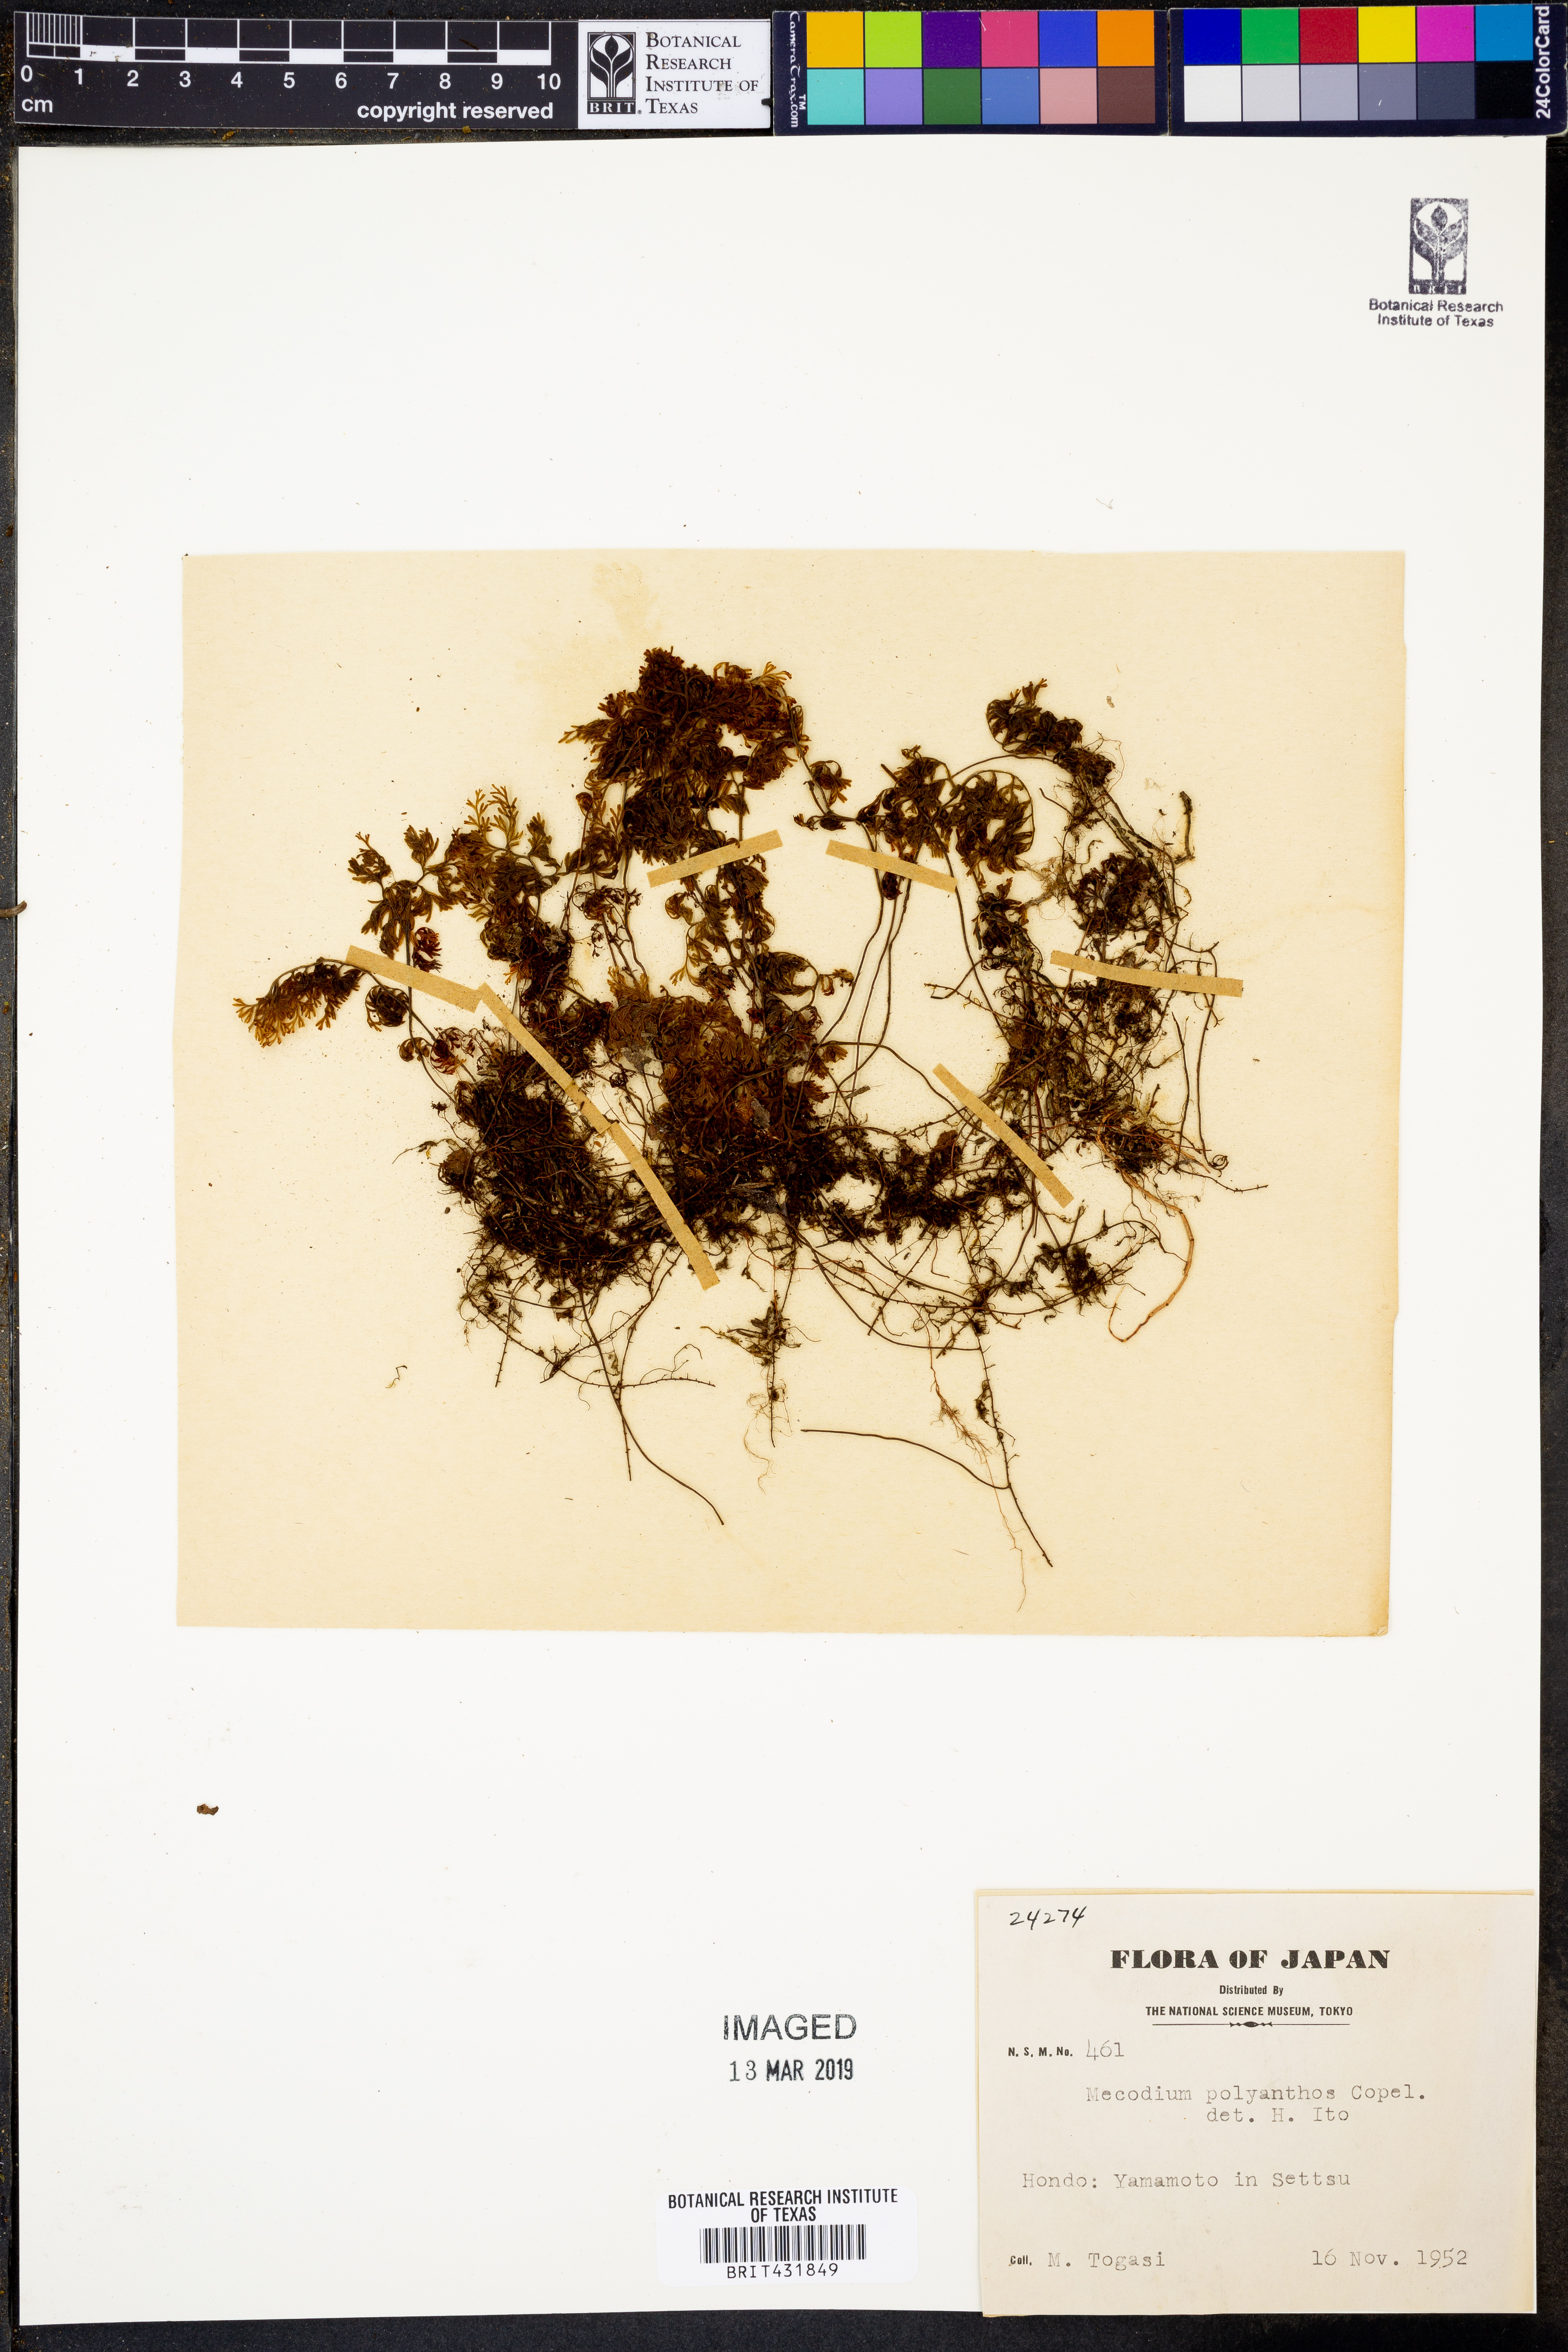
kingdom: Plantae
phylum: Tracheophyta
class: Polypodiopsida
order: Hymenophyllales
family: Hymenophyllaceae
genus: Hymenophyllum
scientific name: Hymenophyllum polyanthos
